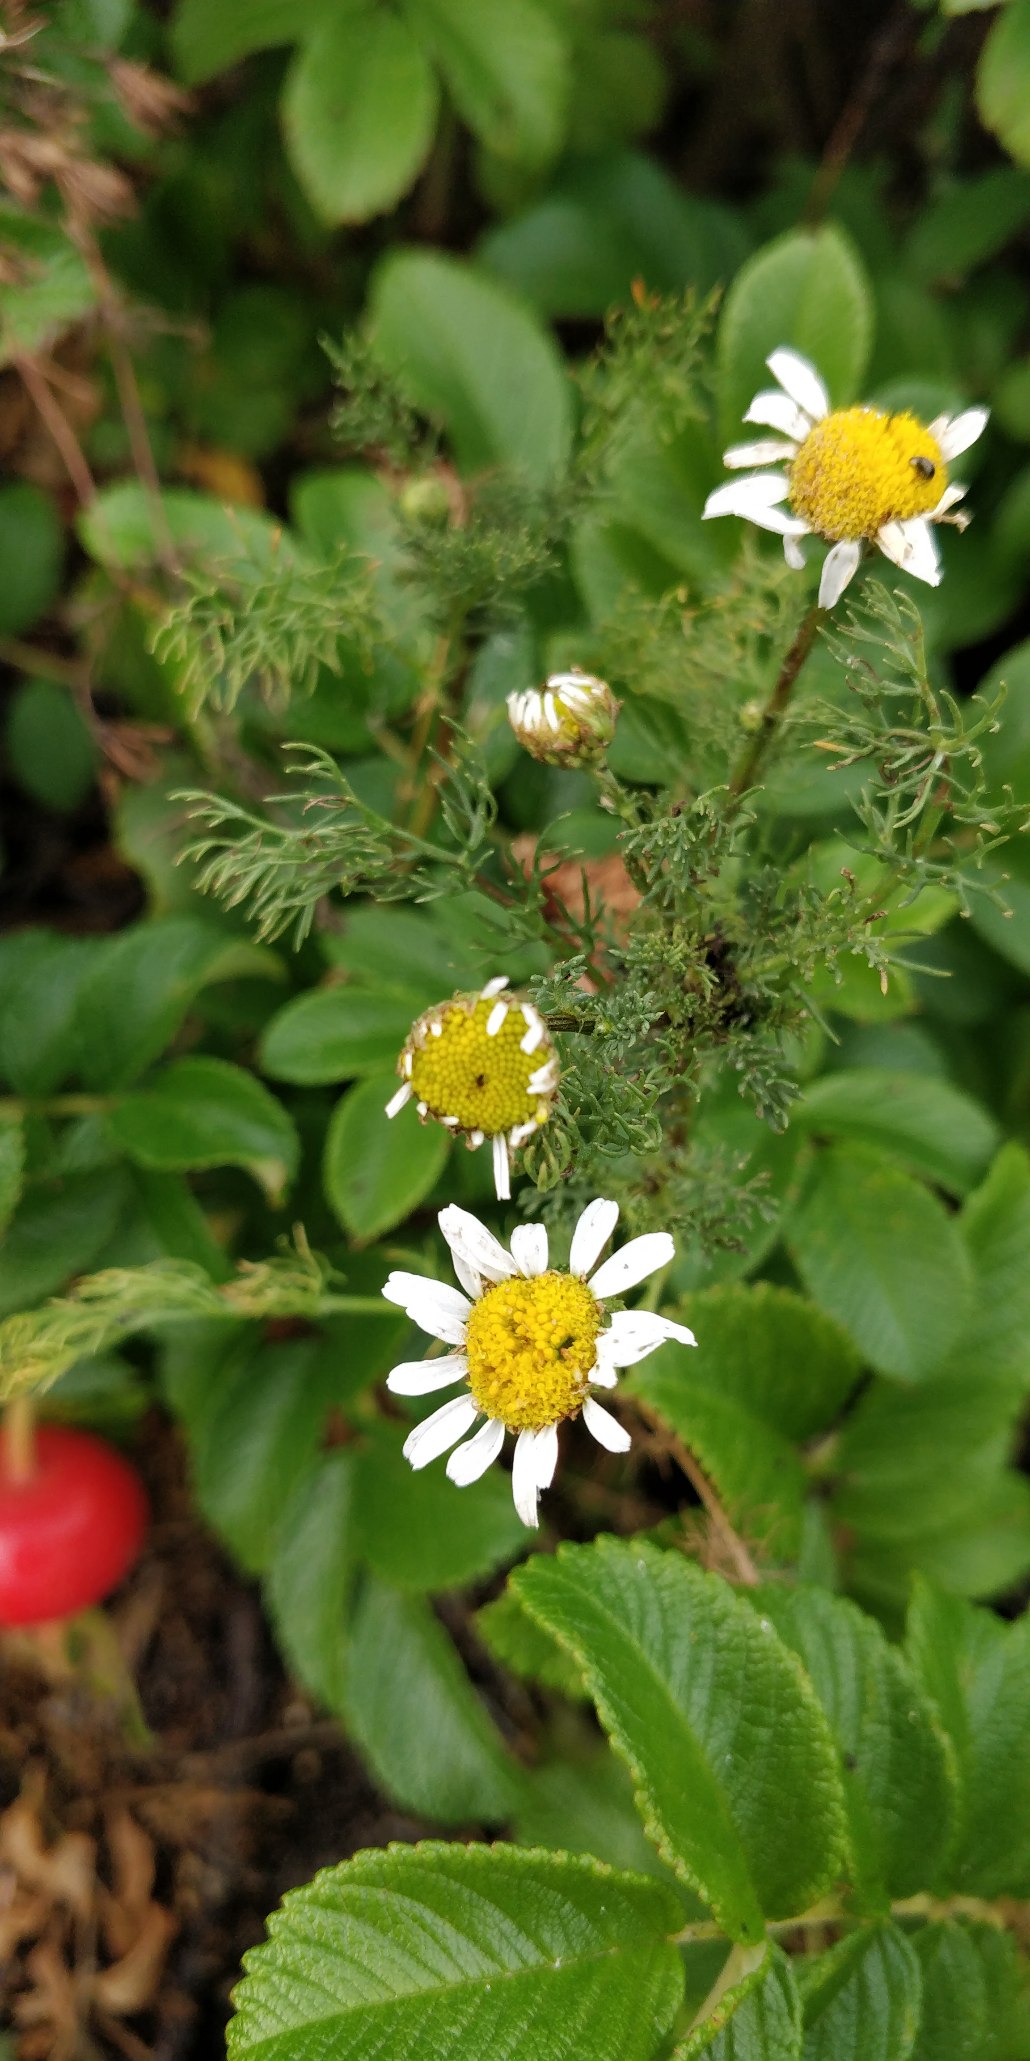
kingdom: Plantae
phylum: Tracheophyta
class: Magnoliopsida
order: Asterales
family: Asteraceae
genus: Tripleurospermum
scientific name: Tripleurospermum
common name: Kamille (Tripleurospermum-slægten)
